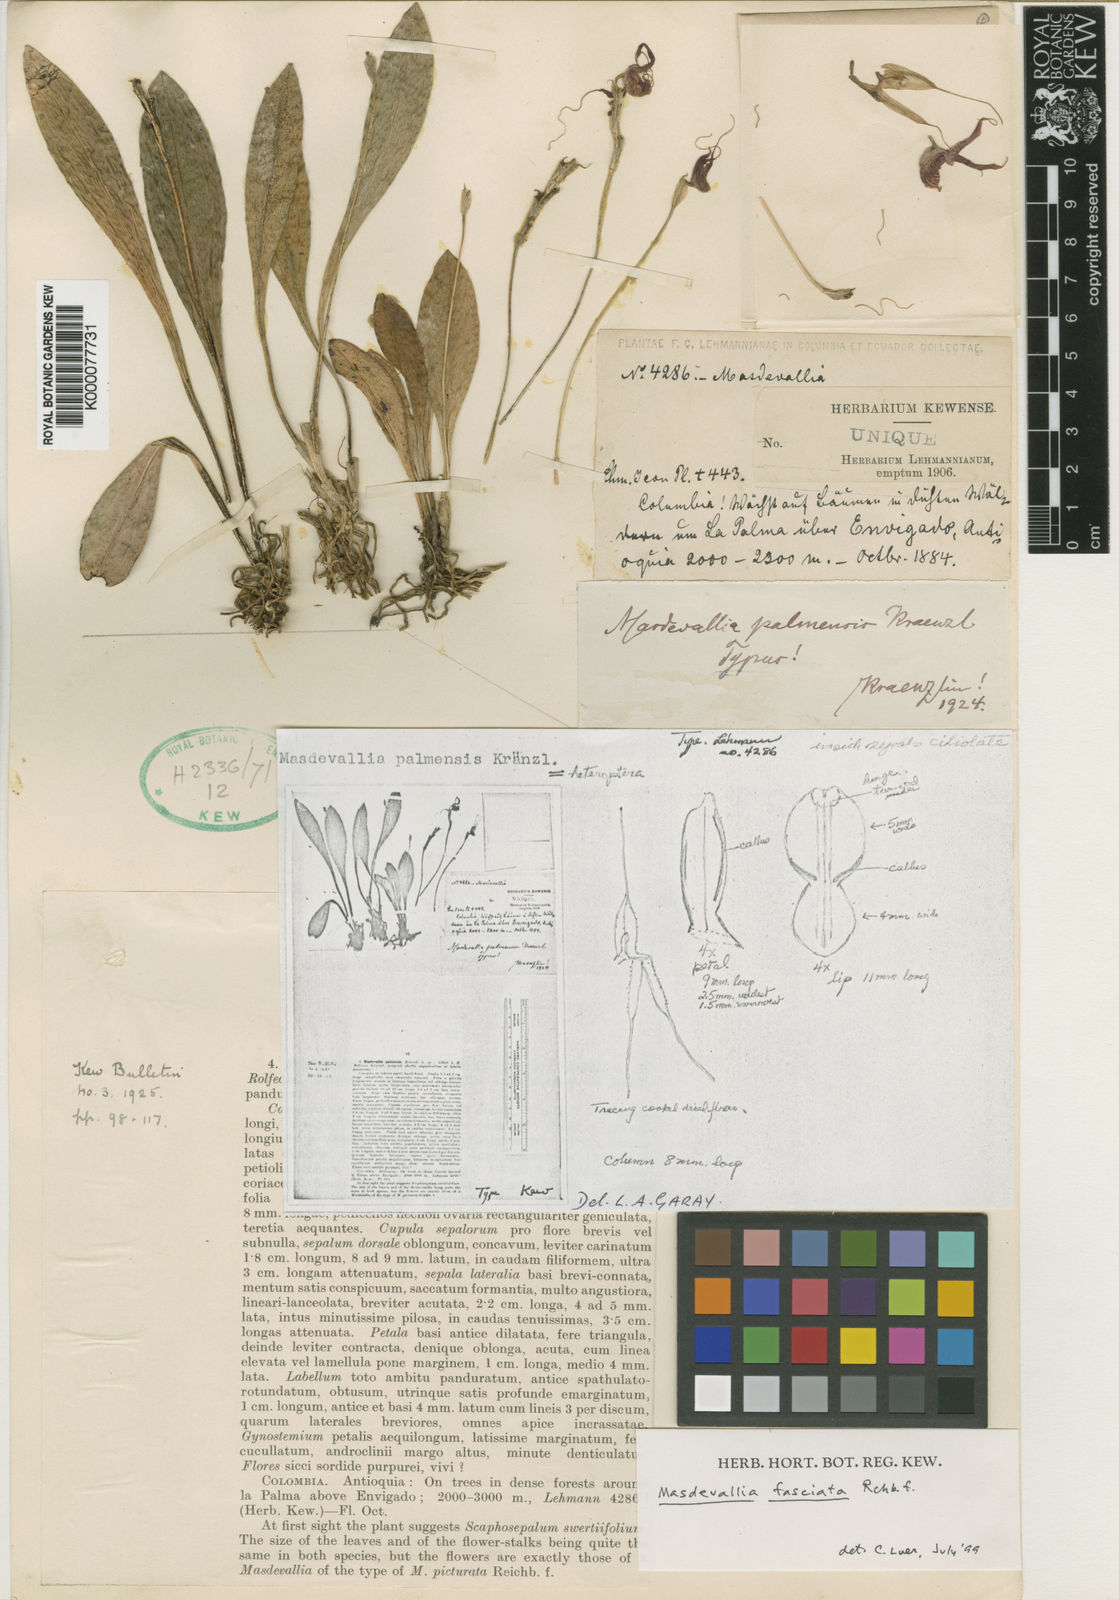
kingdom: Plantae
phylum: Tracheophyta
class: Liliopsida
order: Asparagales
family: Orchidaceae
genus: Masdevallia
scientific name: Masdevallia heteroptera
